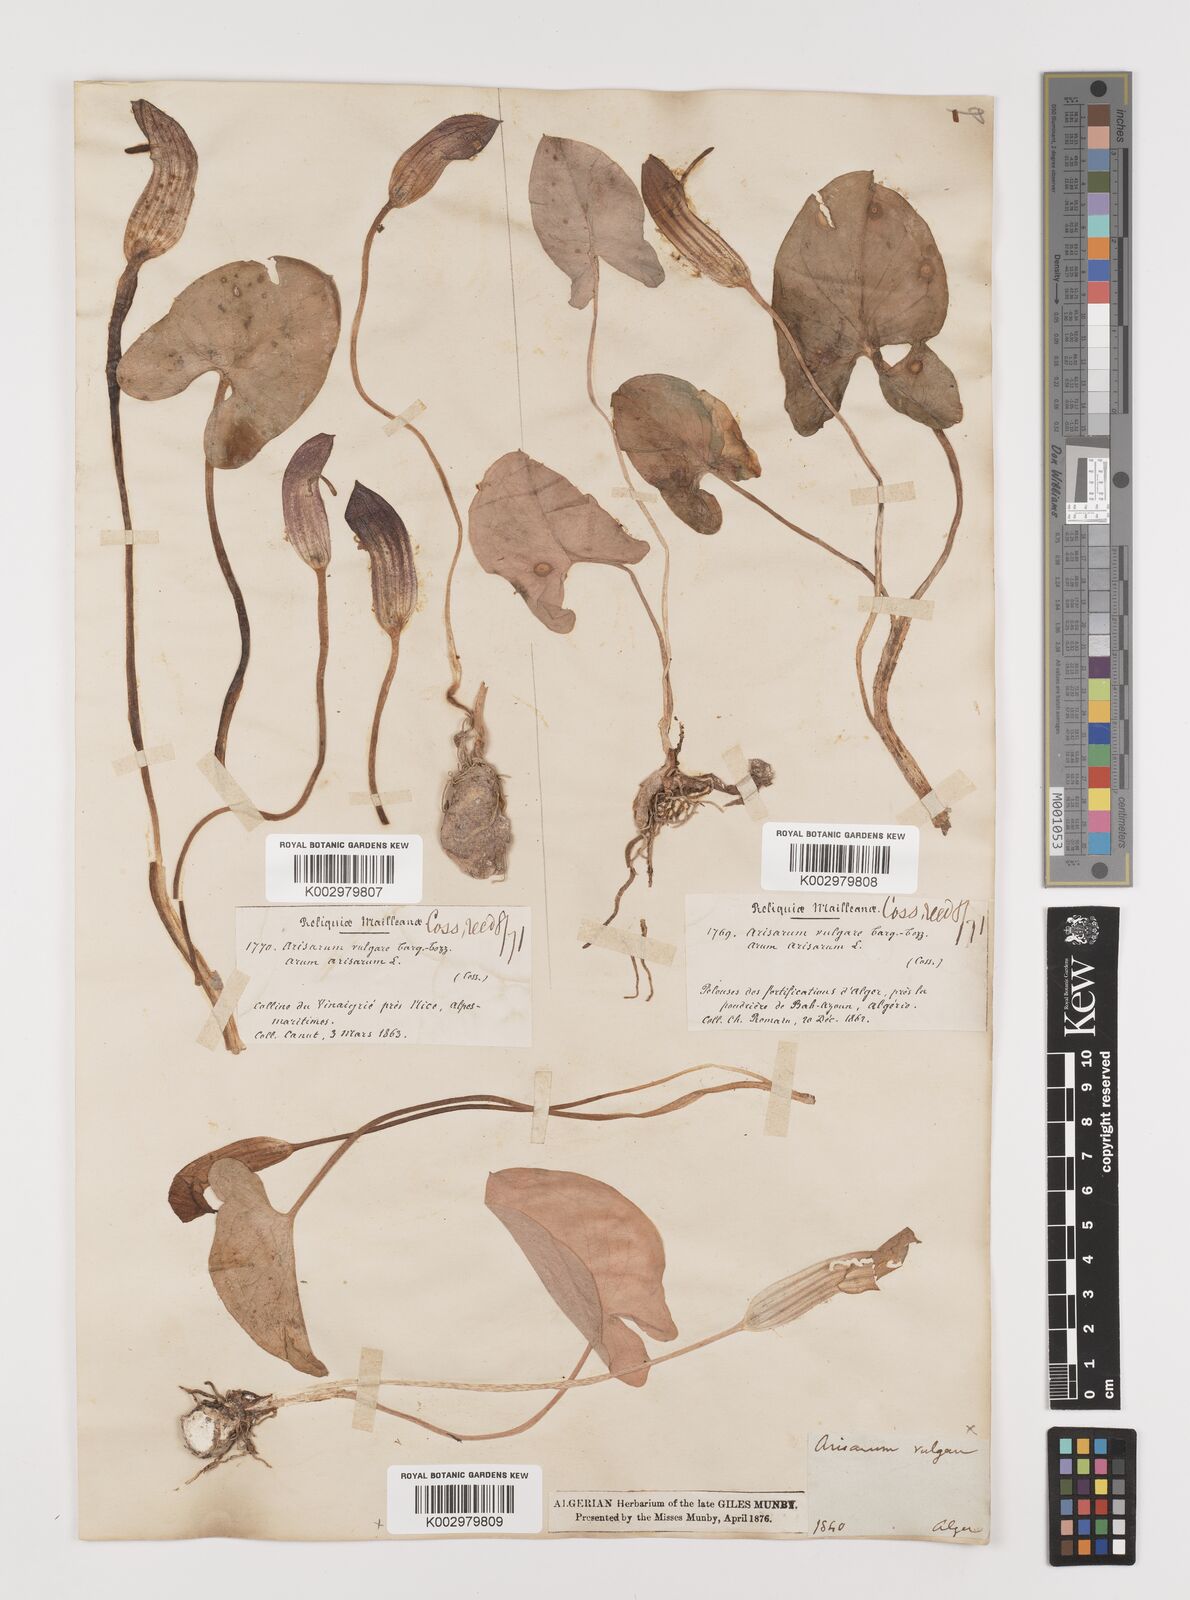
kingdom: Plantae
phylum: Tracheophyta
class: Liliopsida
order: Alismatales
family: Araceae
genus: Arisarum
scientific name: Arisarum vulgare
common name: Common arisarum
